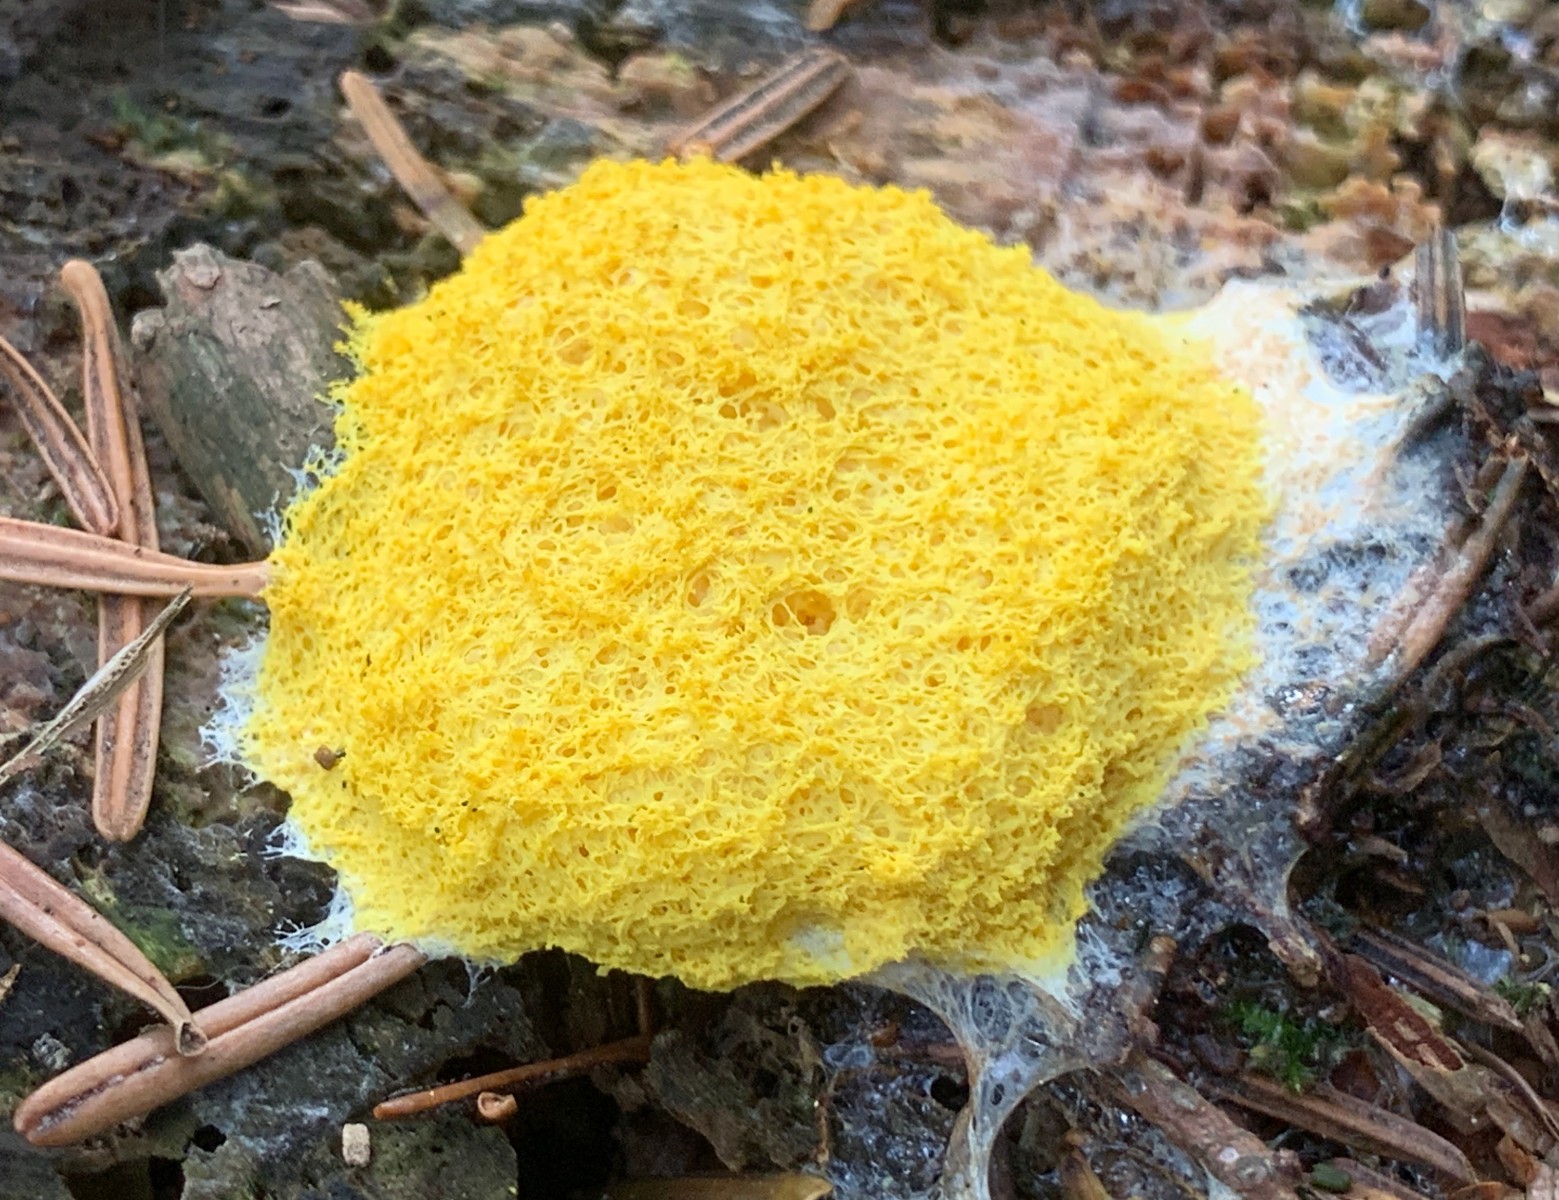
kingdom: Protozoa
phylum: Mycetozoa
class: Myxomycetes
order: Physarales
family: Physaraceae
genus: Fuligo
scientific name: Fuligo septica
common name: gul troldsmør
